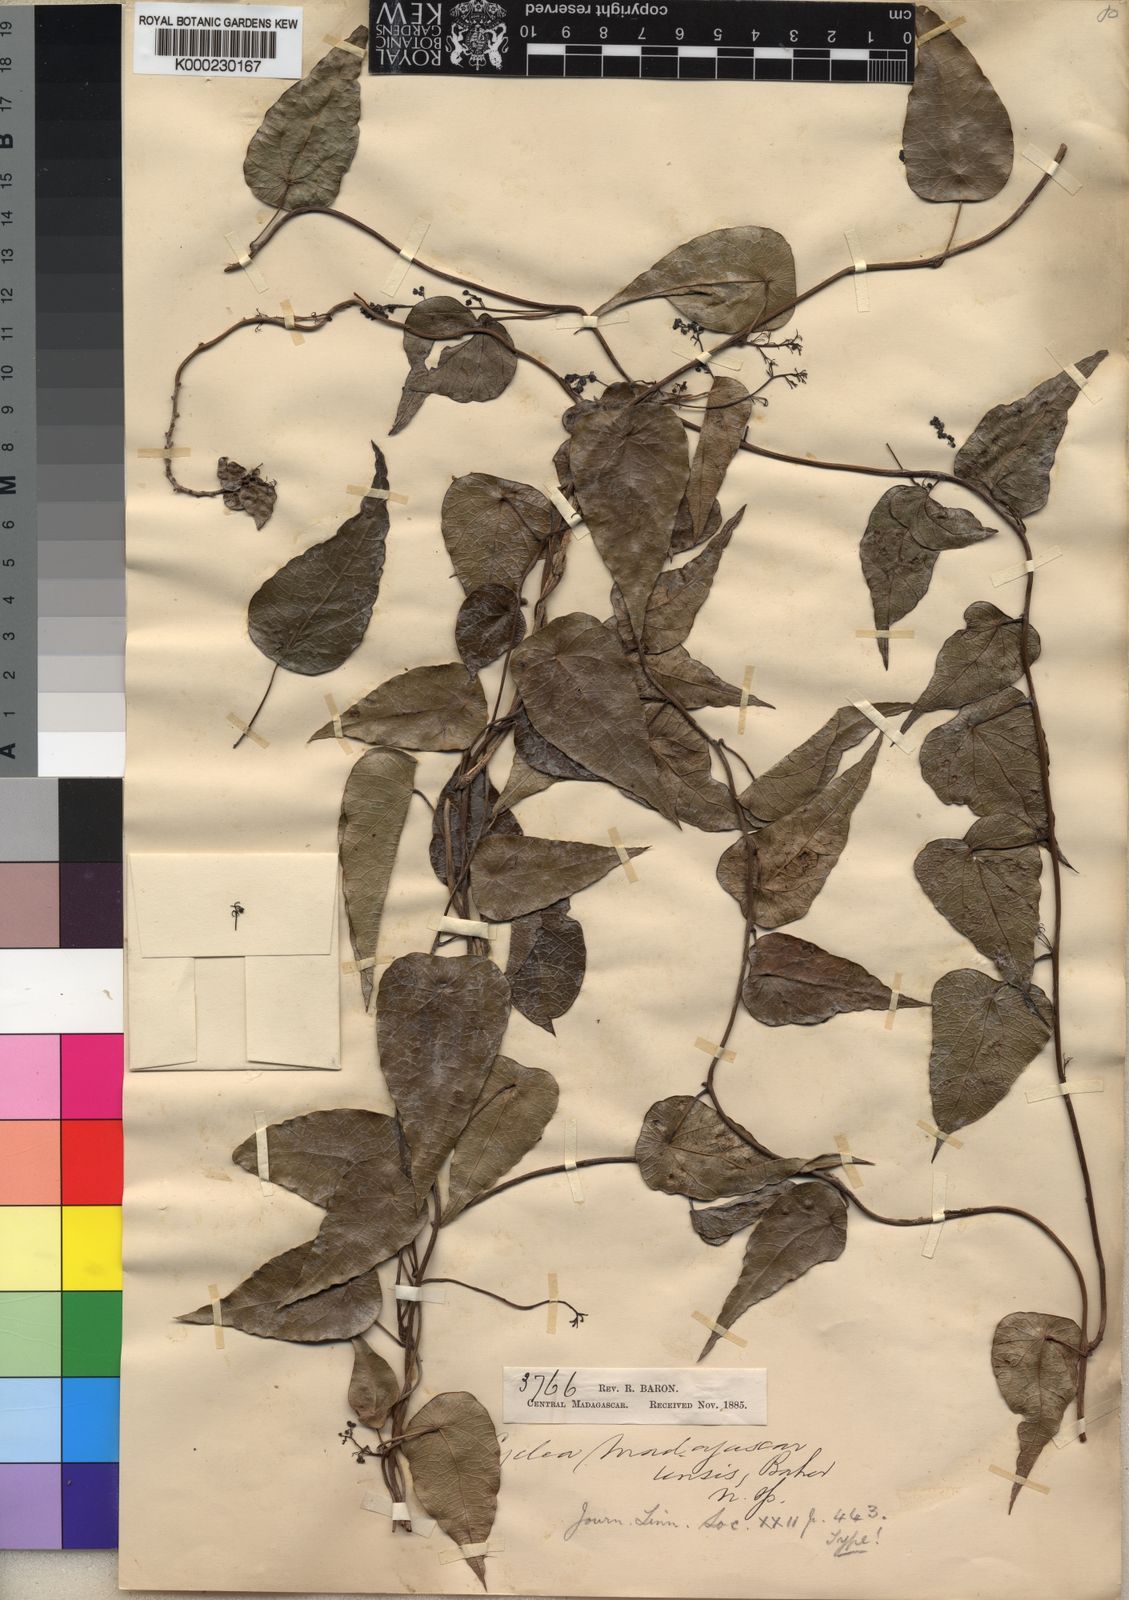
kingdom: Plantae
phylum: Tracheophyta
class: Magnoliopsida
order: Ranunculales
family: Menispermaceae
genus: Cyclea
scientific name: Cyclea madagascariensis
